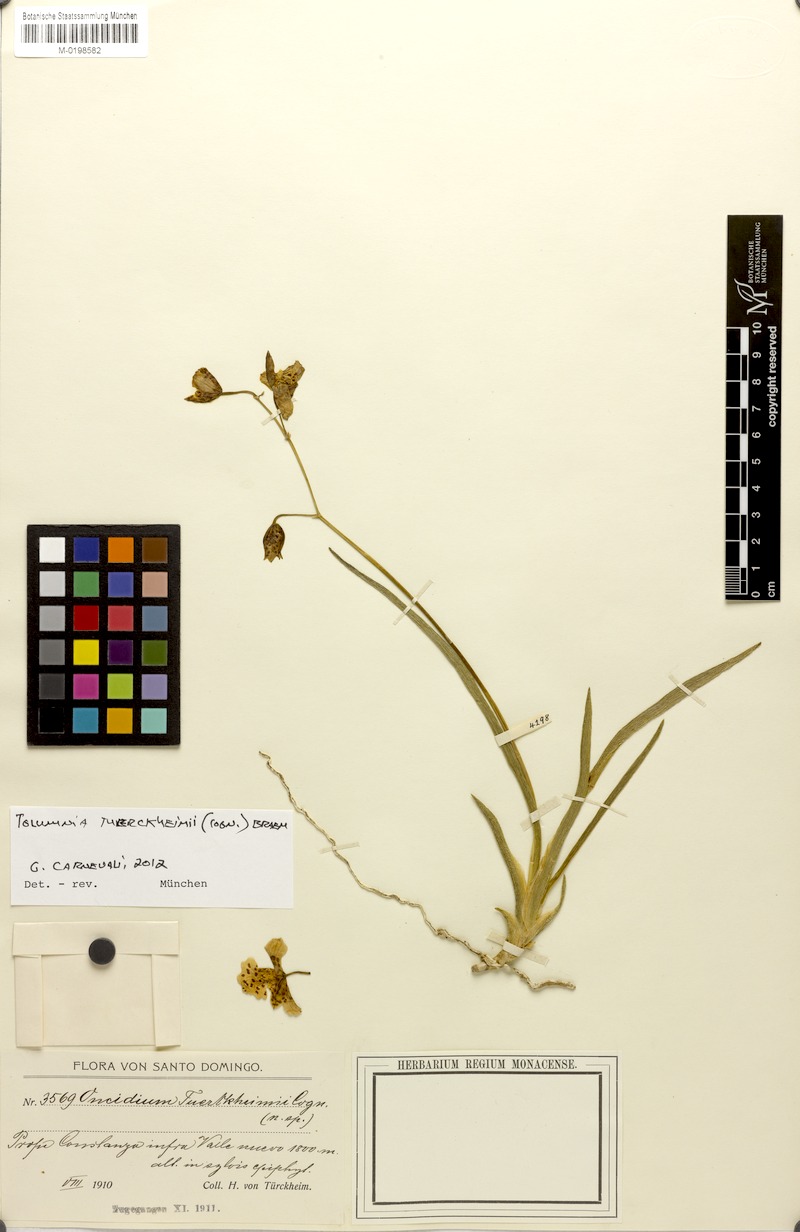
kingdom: Plantae
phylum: Tracheophyta
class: Liliopsida
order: Asparagales
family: Orchidaceae
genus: Tolumnia
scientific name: Tolumnia tuerckheimii
